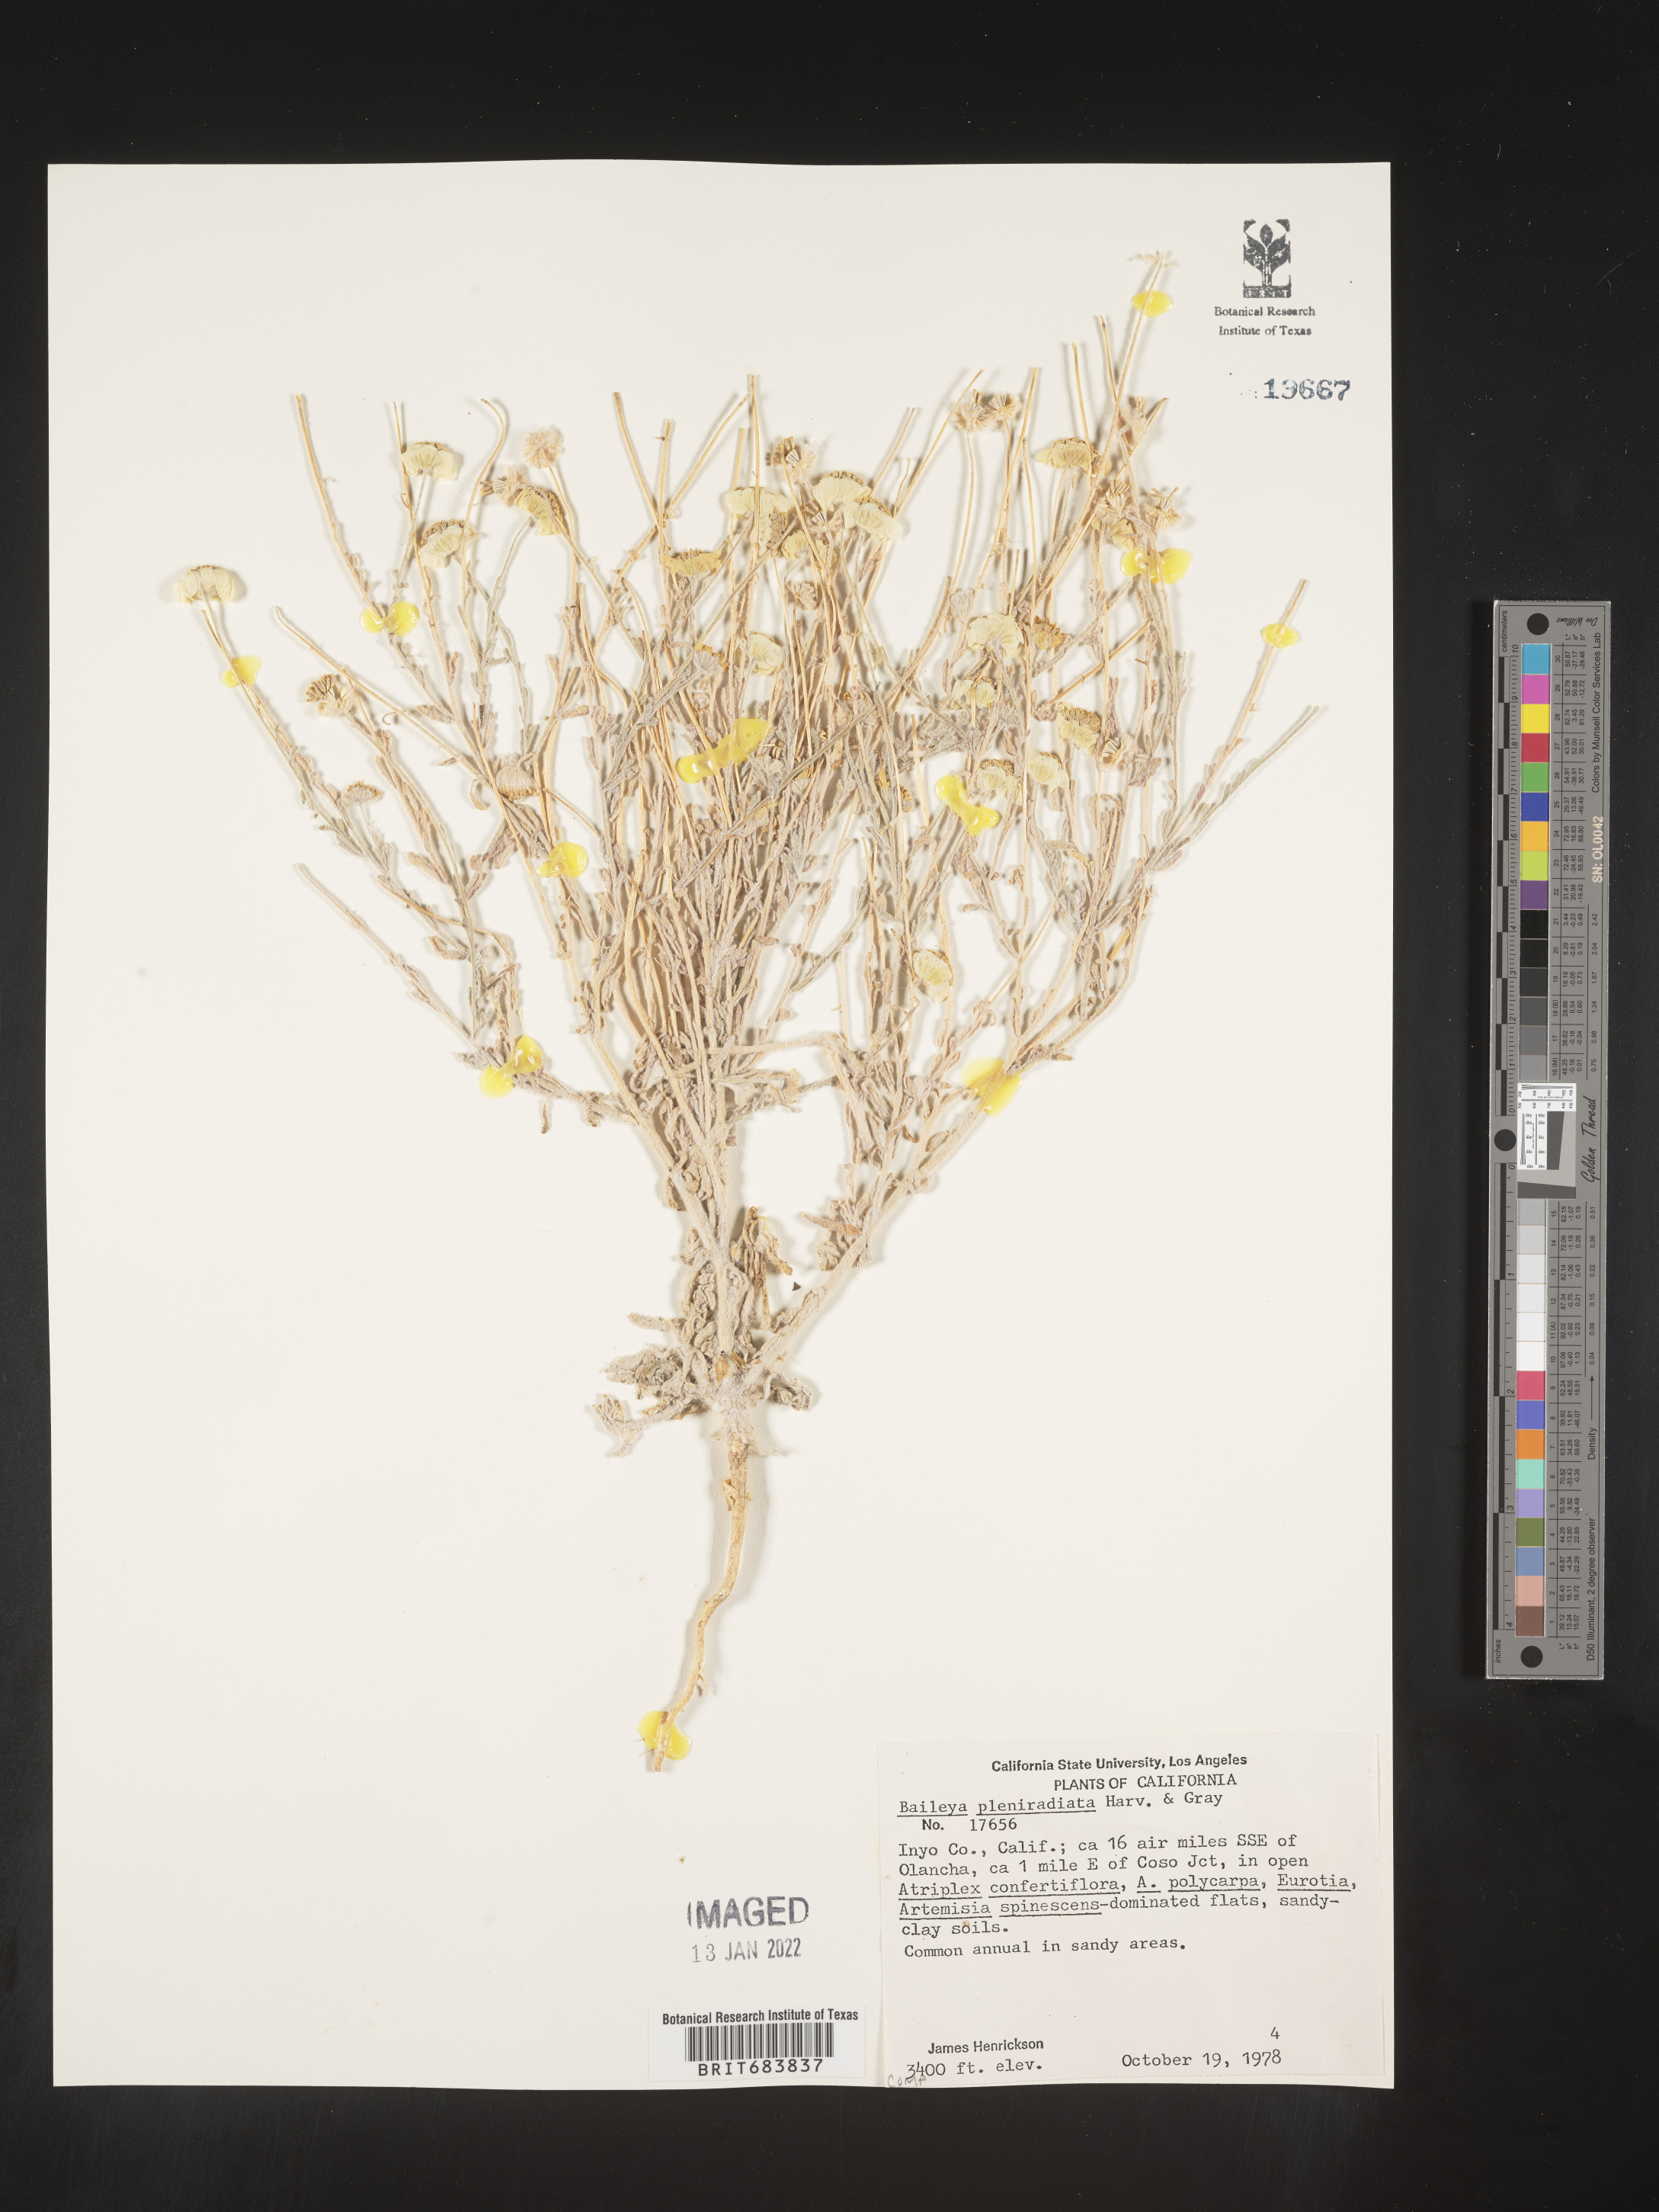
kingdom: Plantae
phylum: Tracheophyta
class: Magnoliopsida
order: Asterales
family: Asteraceae
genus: Baileya
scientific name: Baileya pleniradiata
